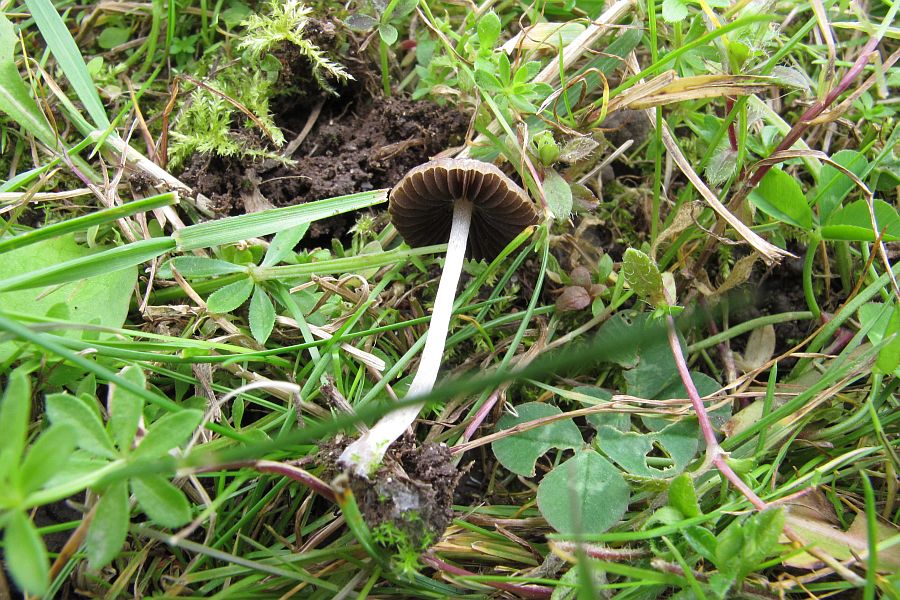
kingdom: Fungi
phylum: Basidiomycota
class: Agaricomycetes
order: Agaricales
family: Psathyrellaceae
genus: Psathyrella
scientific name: Psathyrella panaeoloides
